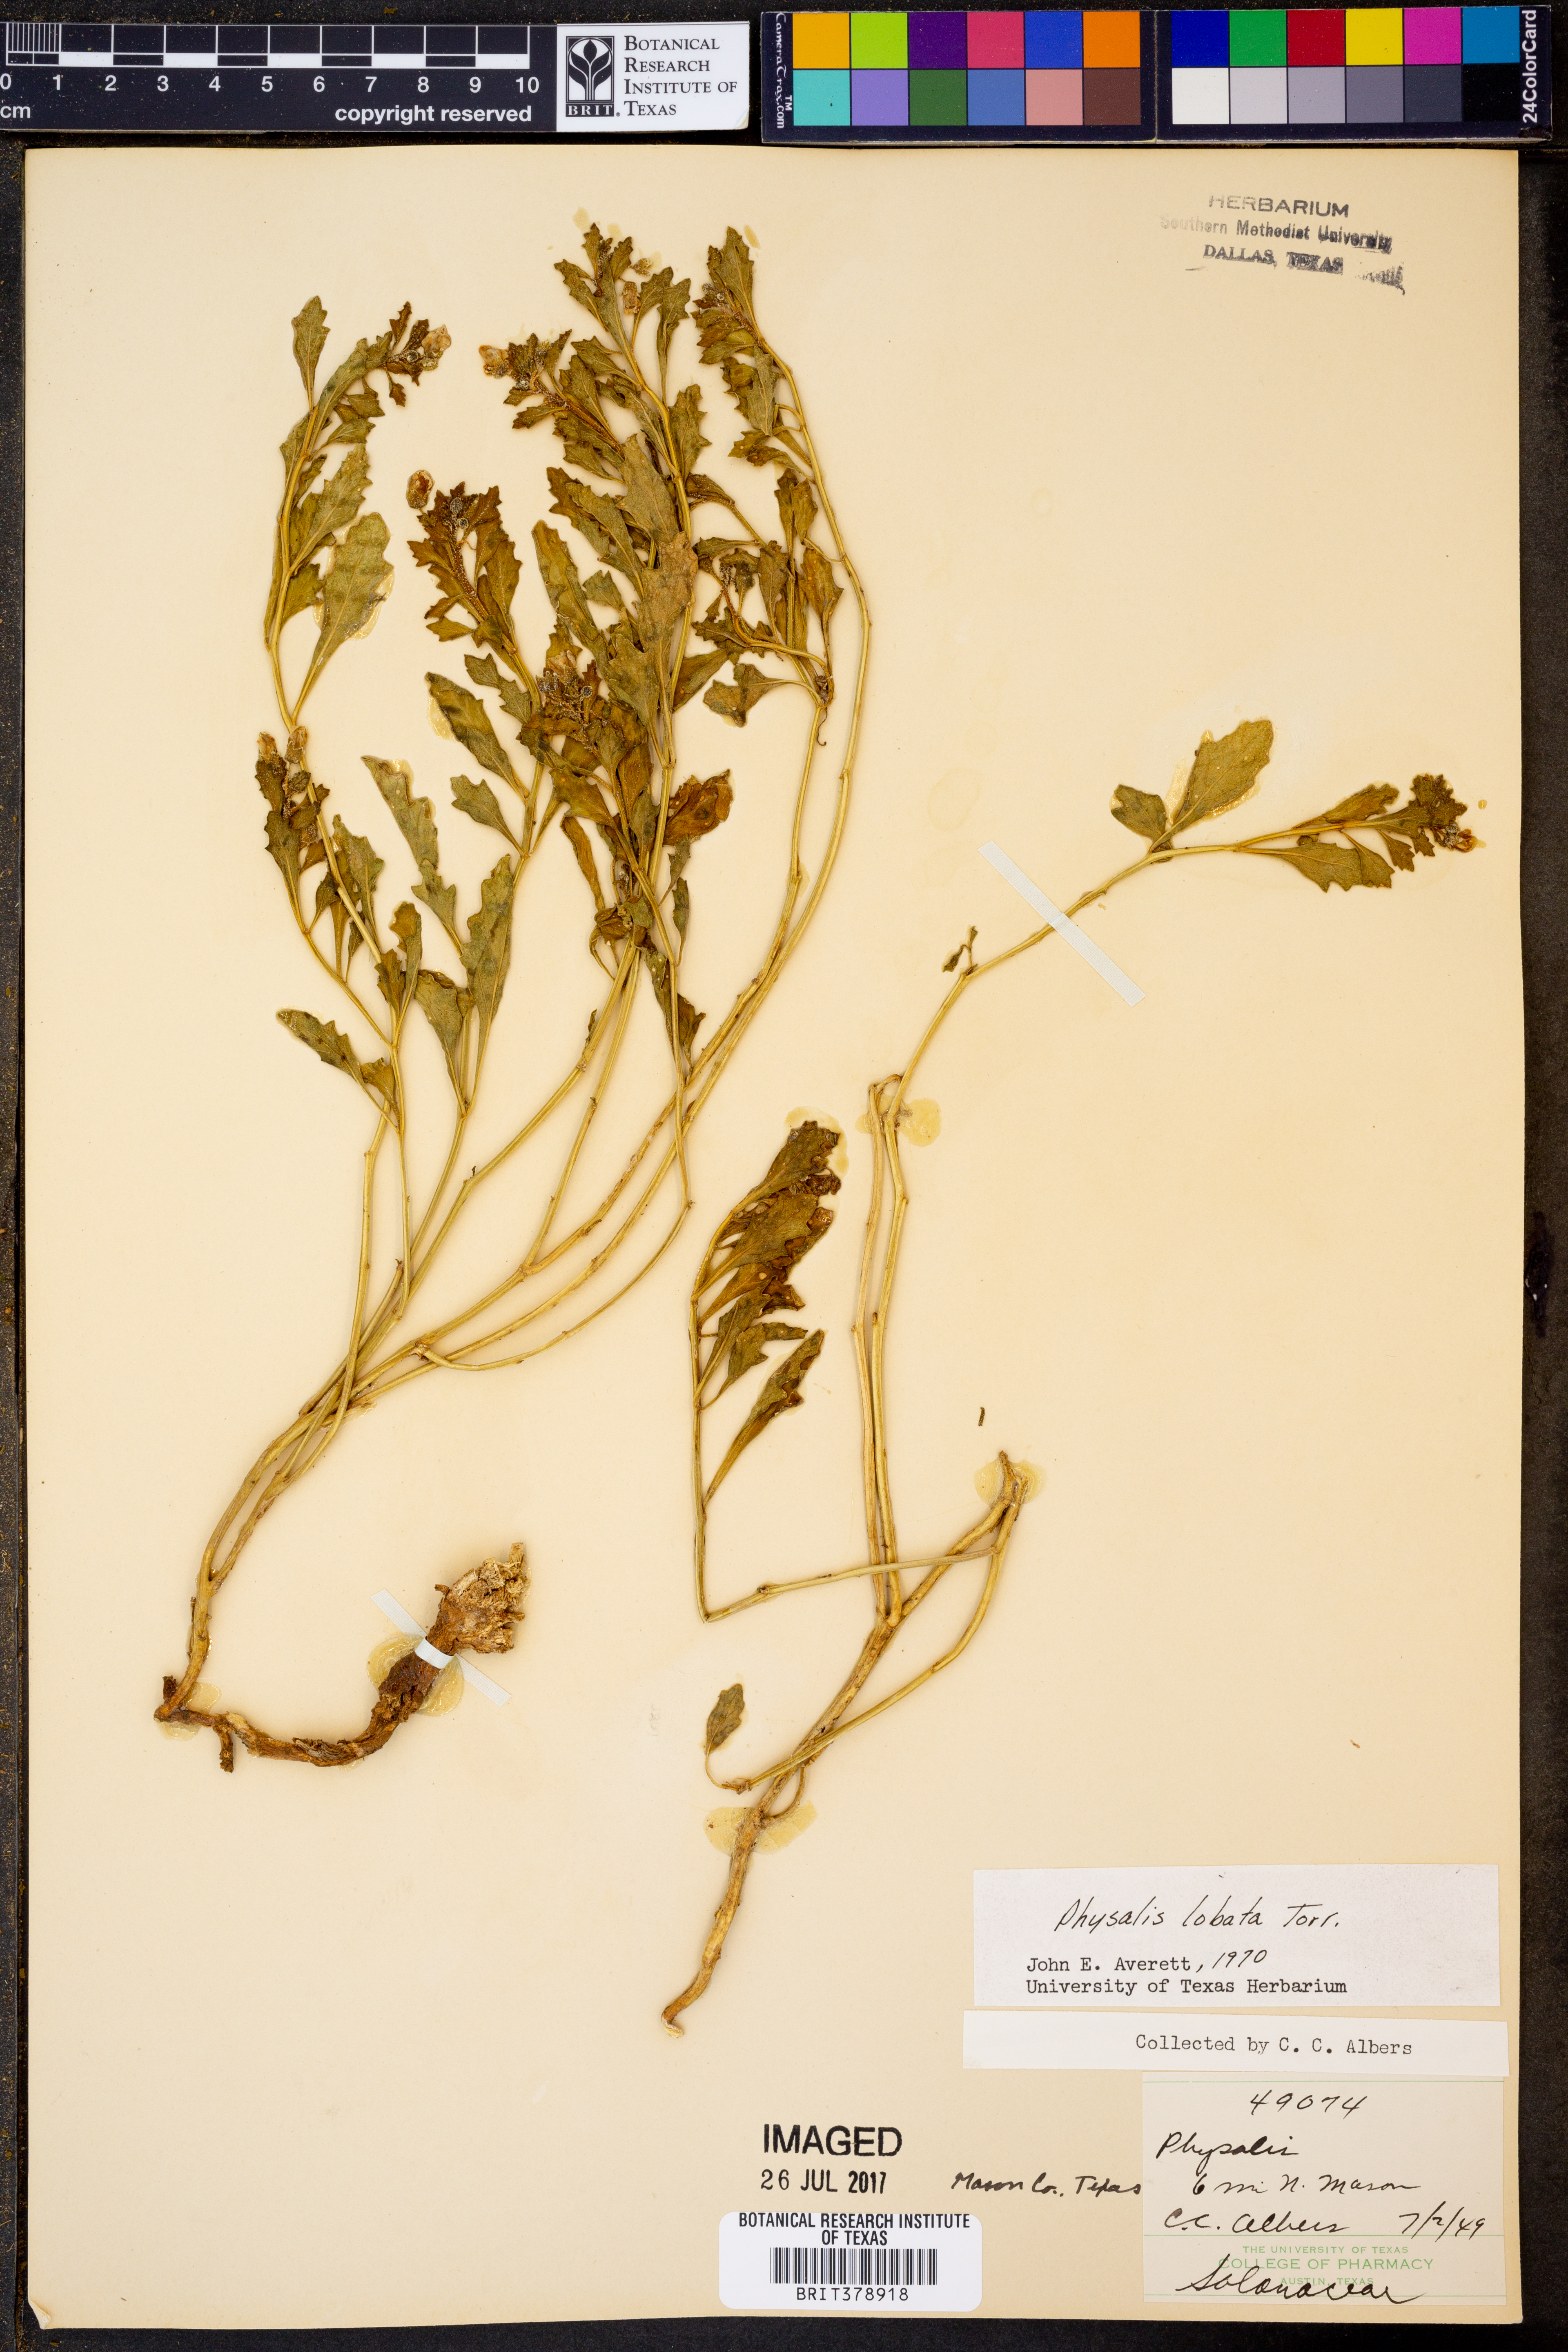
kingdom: Plantae
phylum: Tracheophyta
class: Magnoliopsida
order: Solanales
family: Solanaceae
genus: Quincula
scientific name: Quincula lobata
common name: Purple-ground-cherry
